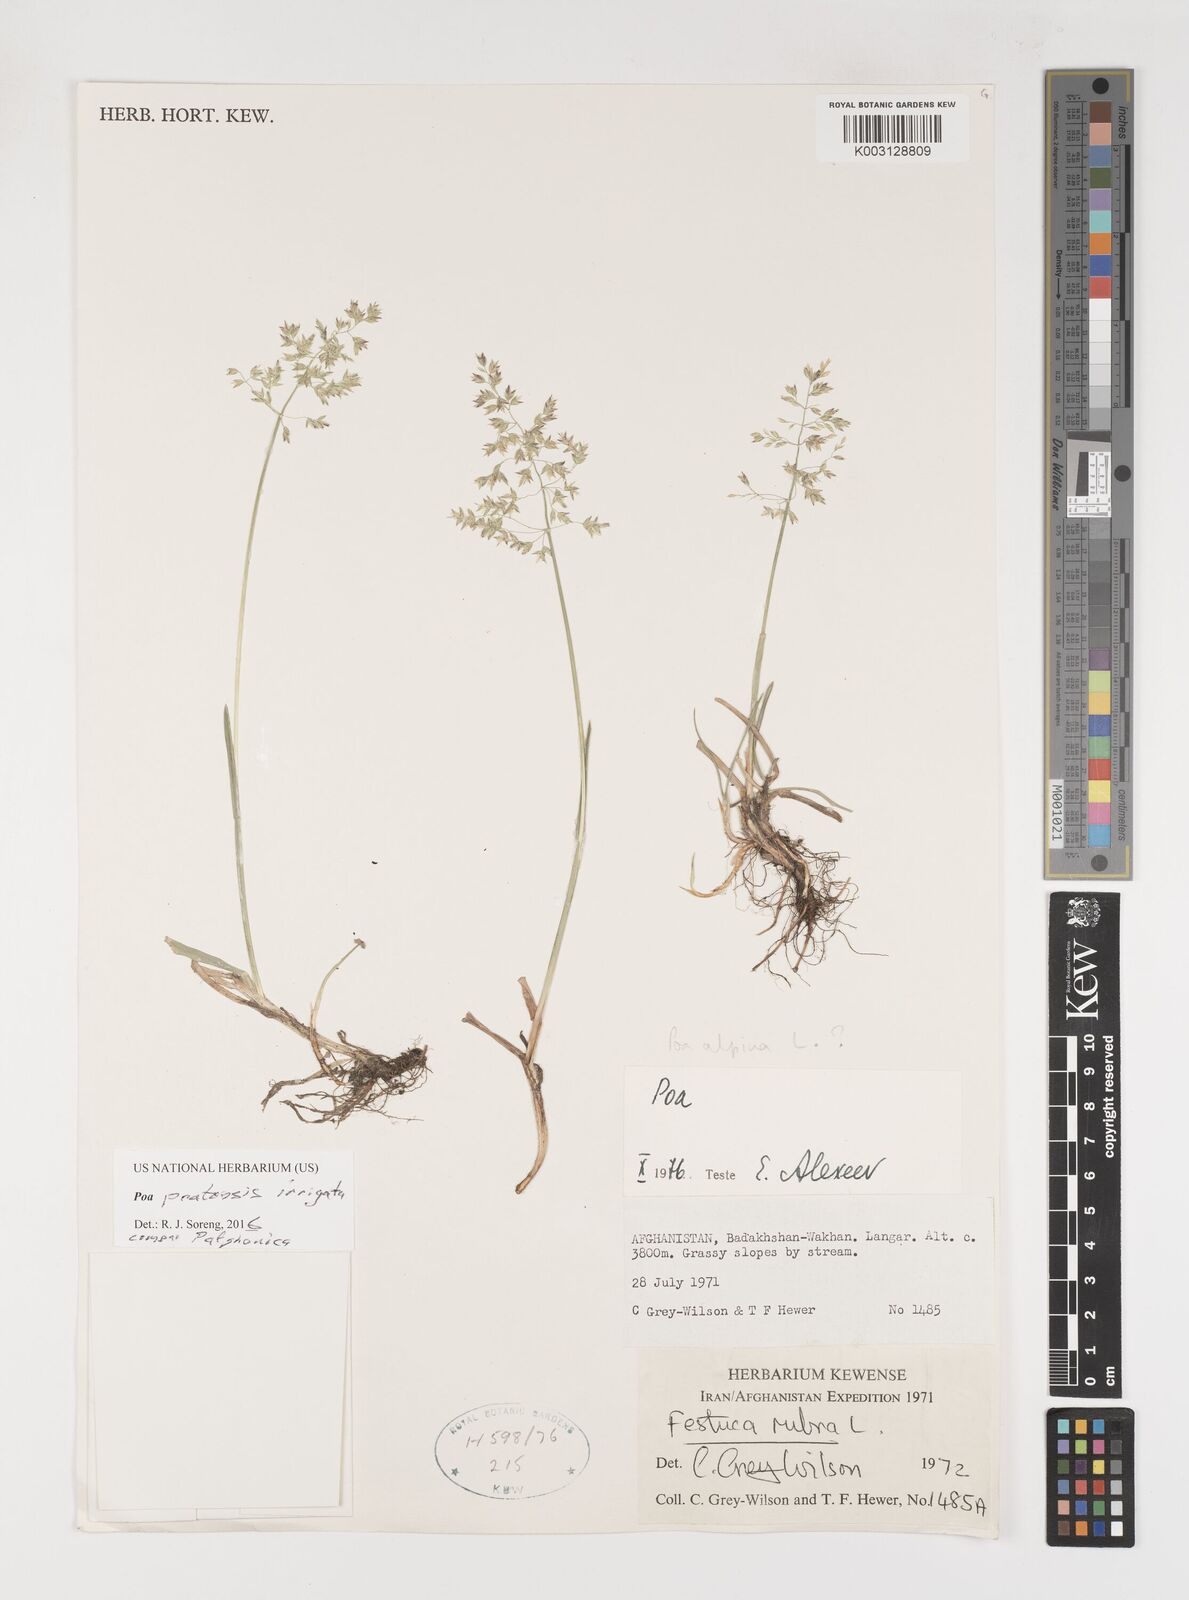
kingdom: Plantae
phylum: Tracheophyta
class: Liliopsida
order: Poales
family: Poaceae
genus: Poa
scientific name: Poa pratensis
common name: Kentucky bluegrass
